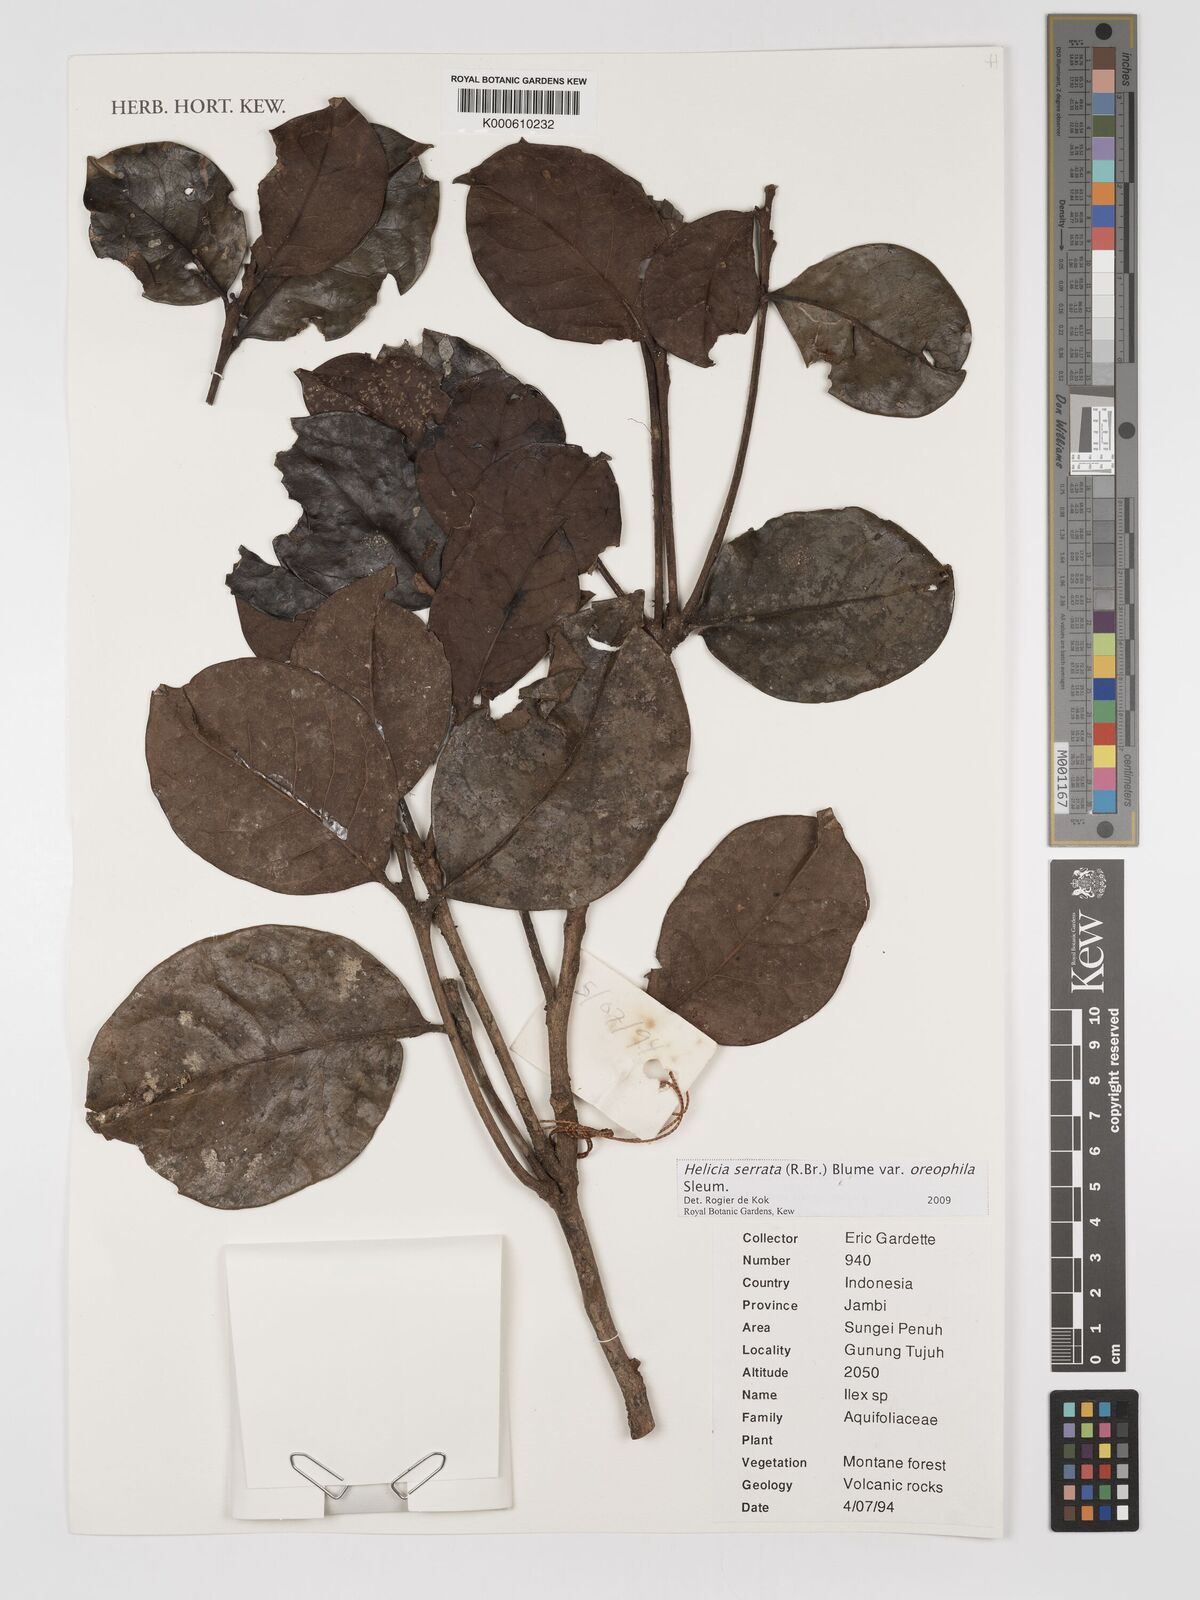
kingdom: Plantae
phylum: Tracheophyta
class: Magnoliopsida
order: Proteales
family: Proteaceae
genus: Helicia
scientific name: Helicia serrata
